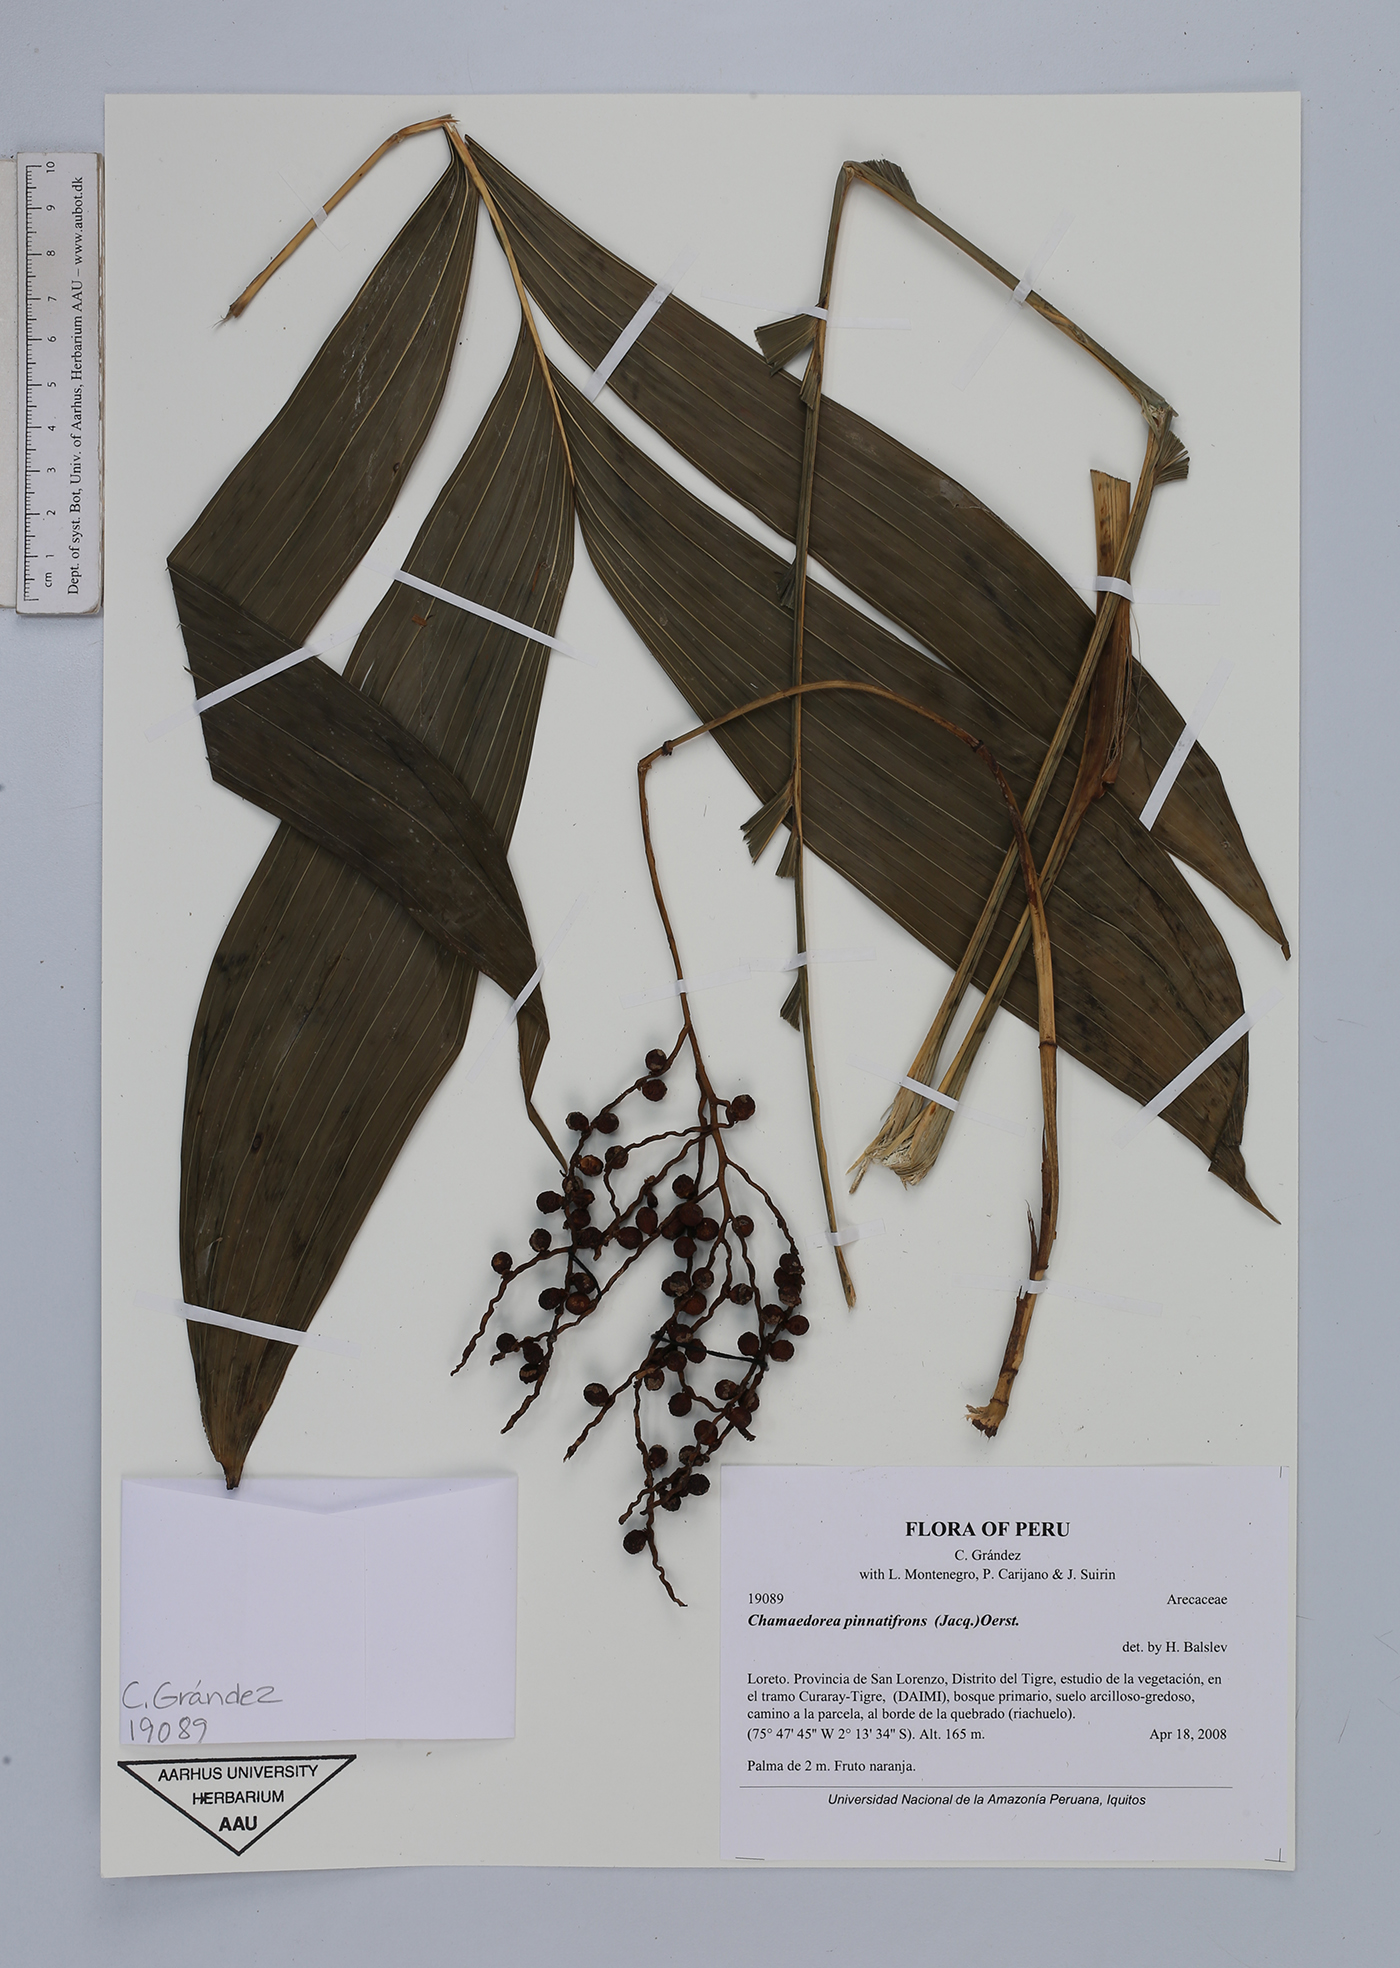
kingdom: Plantae
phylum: Tracheophyta
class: Liliopsida
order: Arecales
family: Arecaceae
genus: Chamaedorea
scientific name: Chamaedorea pinnatifrons
